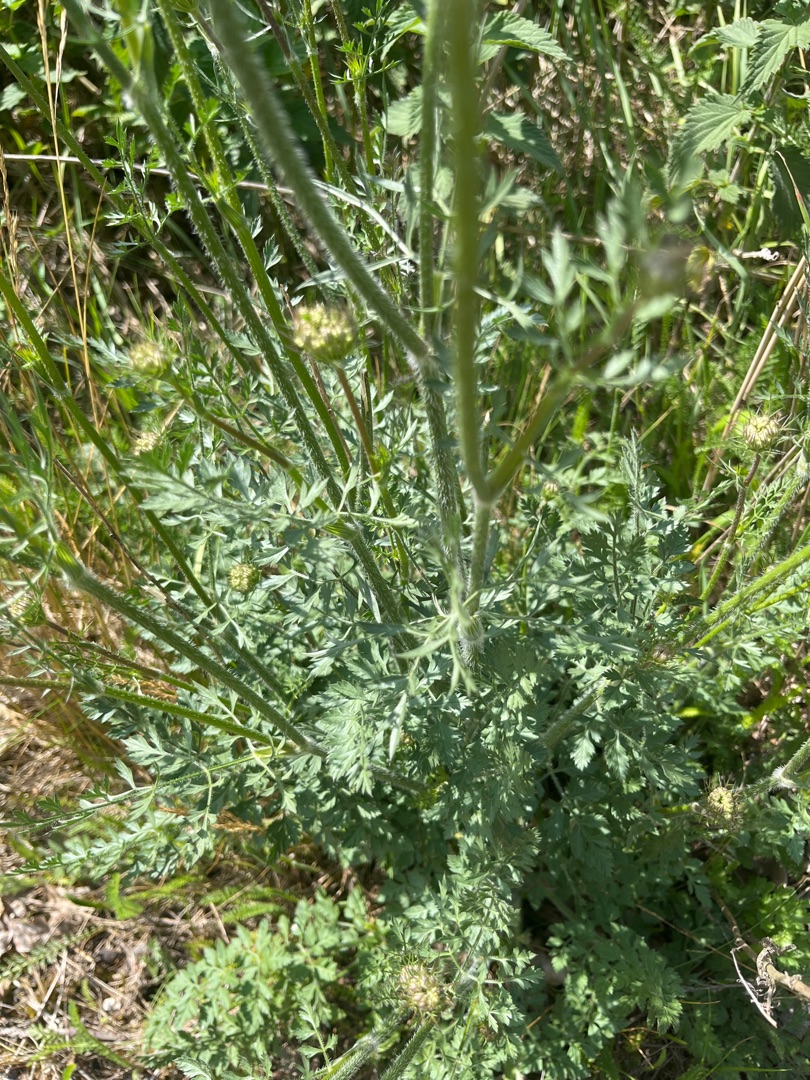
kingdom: Plantae
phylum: Tracheophyta
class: Magnoliopsida
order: Apiales
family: Apiaceae
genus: Daucus
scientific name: Daucus carota
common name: Gulerod
